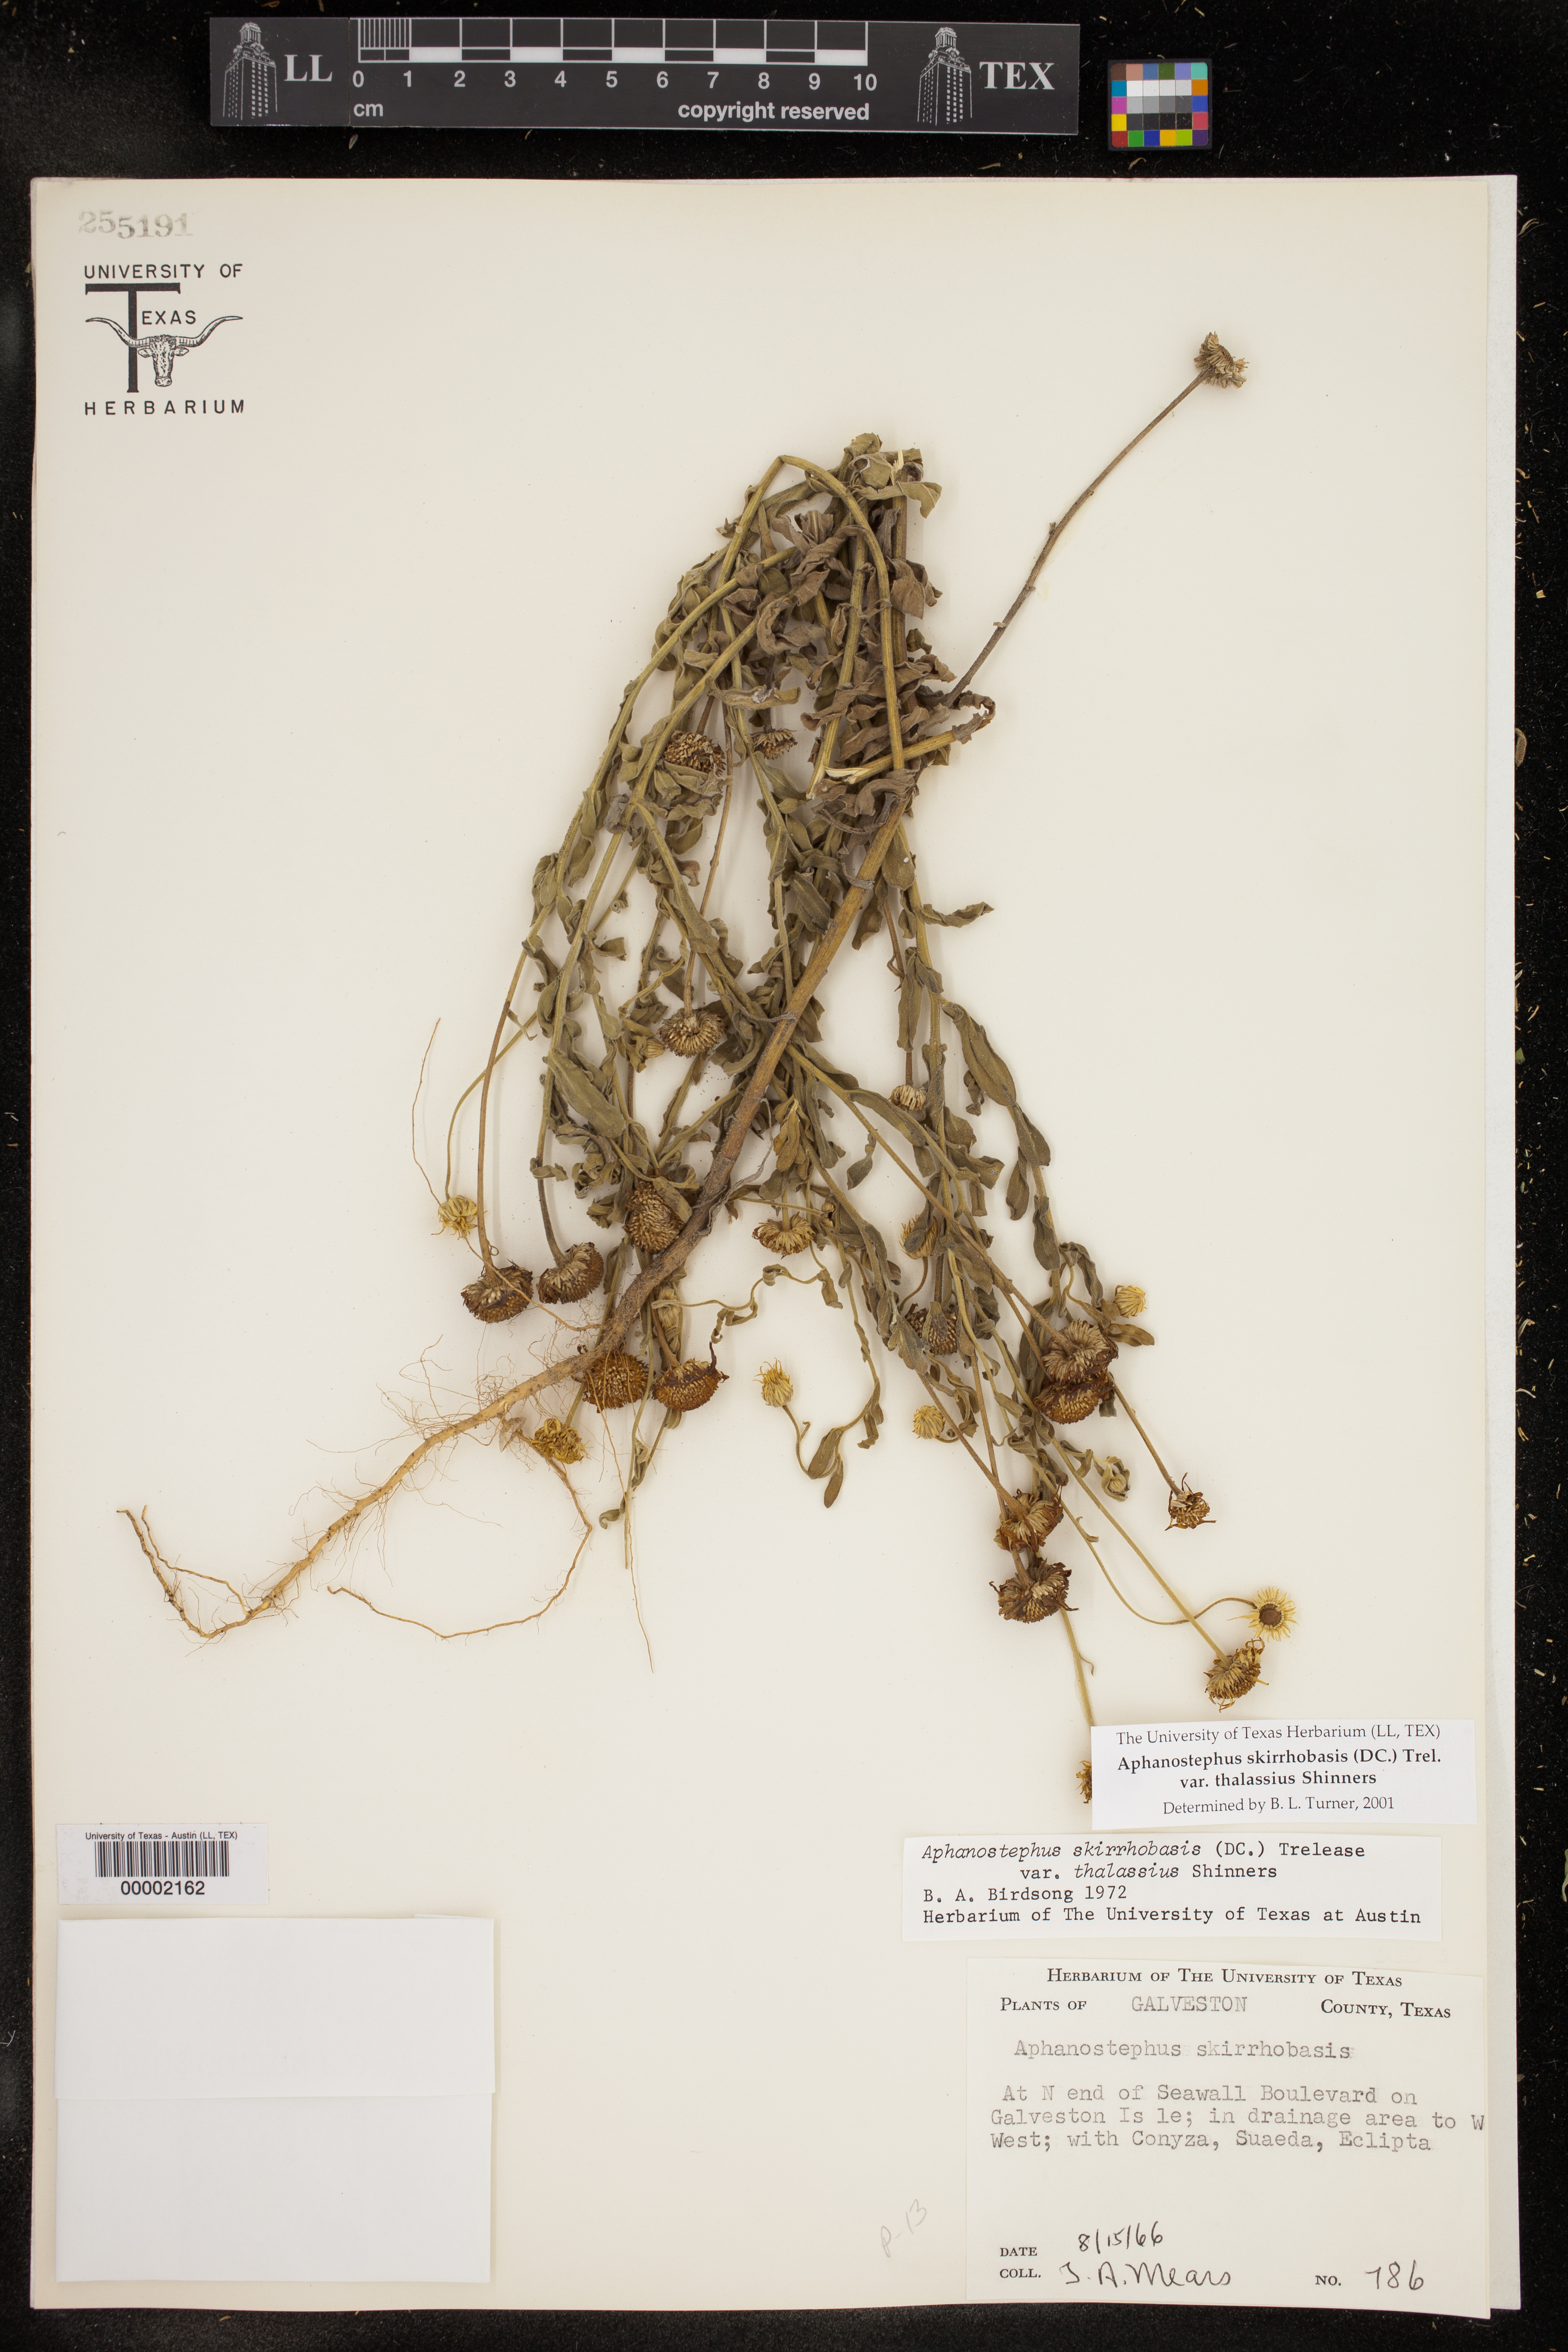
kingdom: Plantae
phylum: Tracheophyta
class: Magnoliopsida
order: Asterales
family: Asteraceae
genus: Aphanostephus
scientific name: Aphanostephus skirrhobasis
